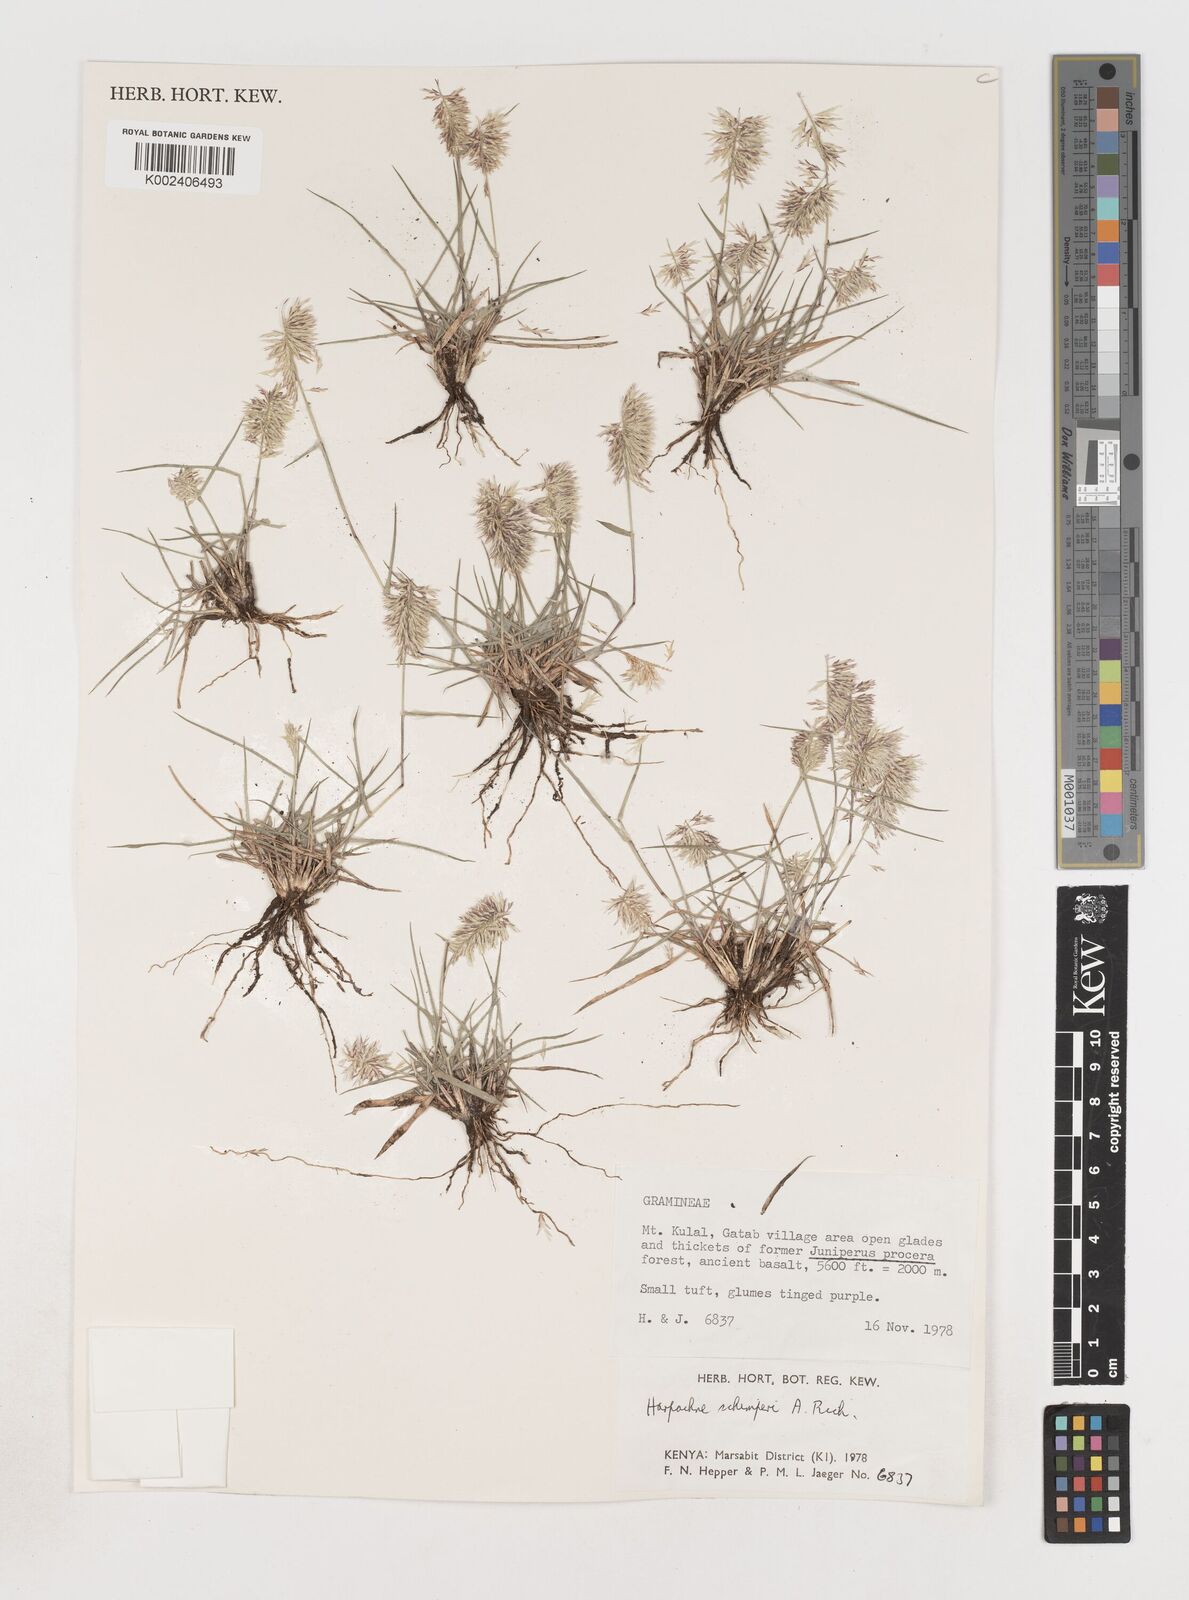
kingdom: Plantae
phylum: Tracheophyta
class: Liliopsida
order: Poales
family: Poaceae
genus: Harpachne
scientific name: Harpachne schimperi
